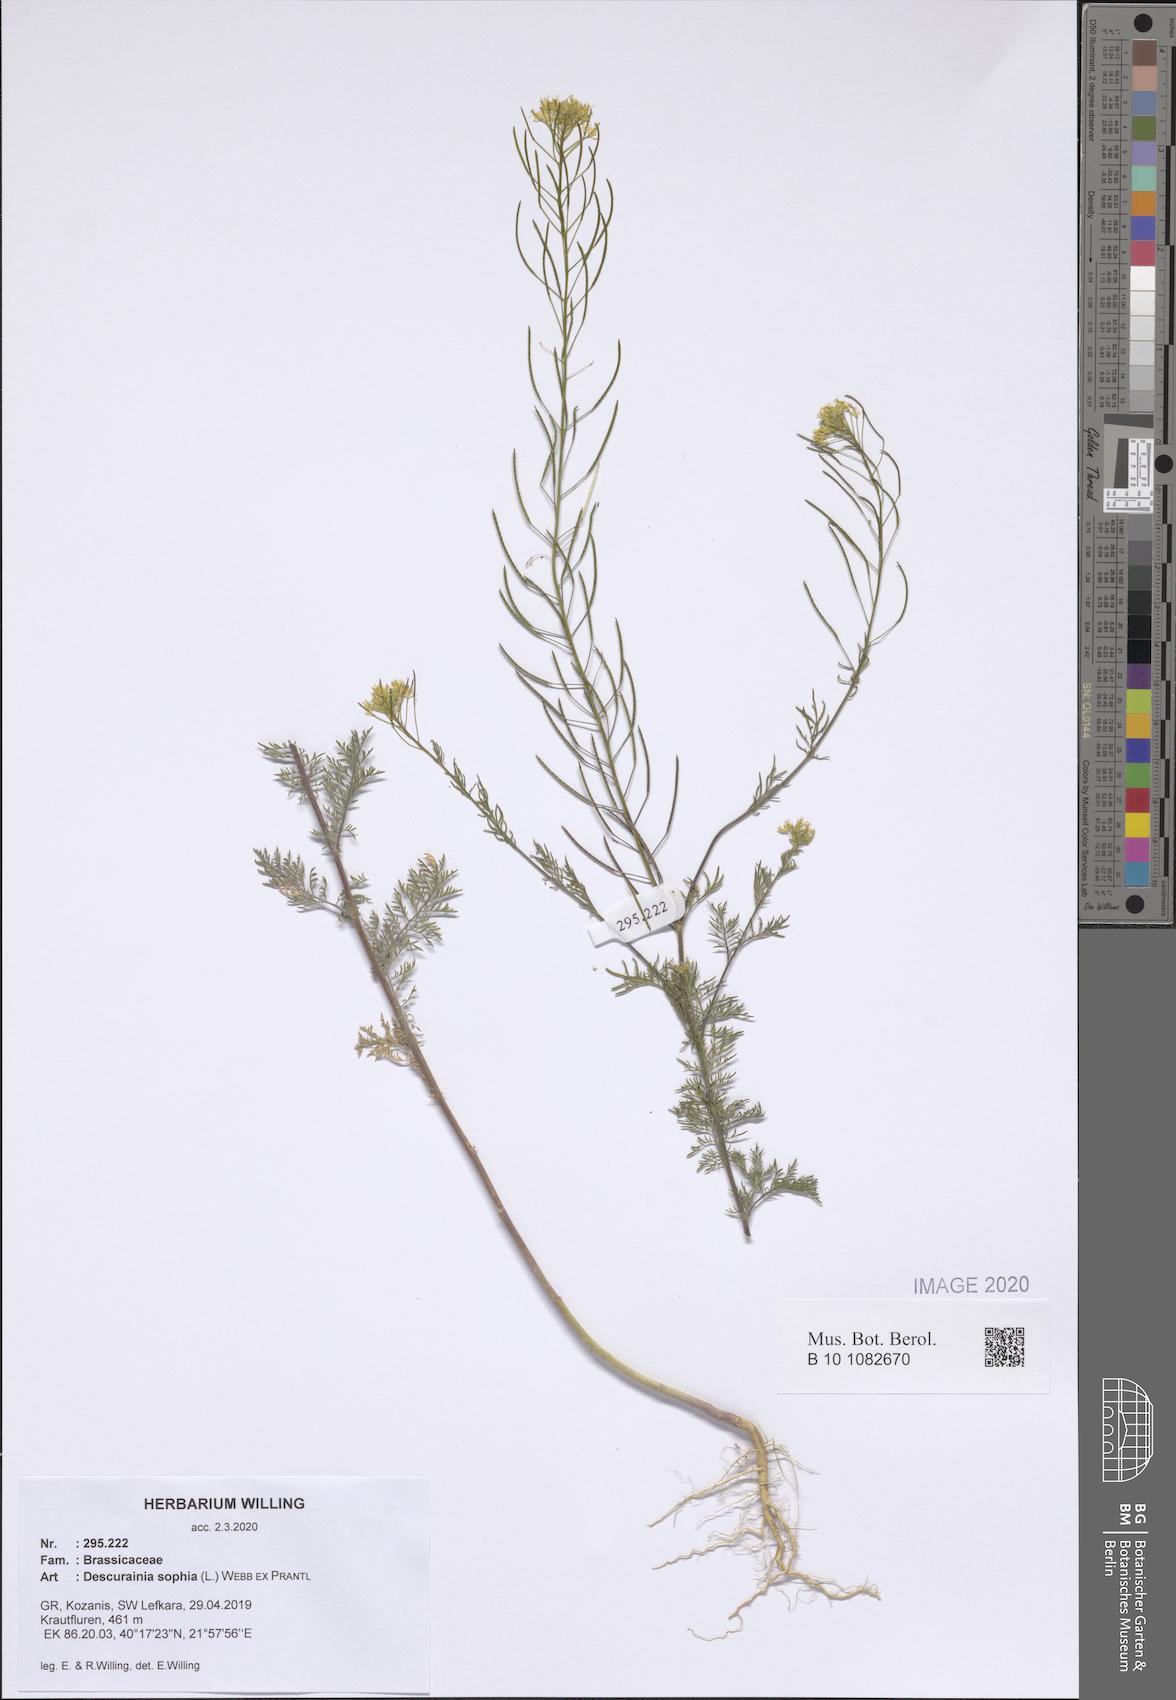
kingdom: Plantae
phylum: Tracheophyta
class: Magnoliopsida
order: Brassicales
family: Brassicaceae
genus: Descurainia
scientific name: Descurainia sophia
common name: Flixweed
